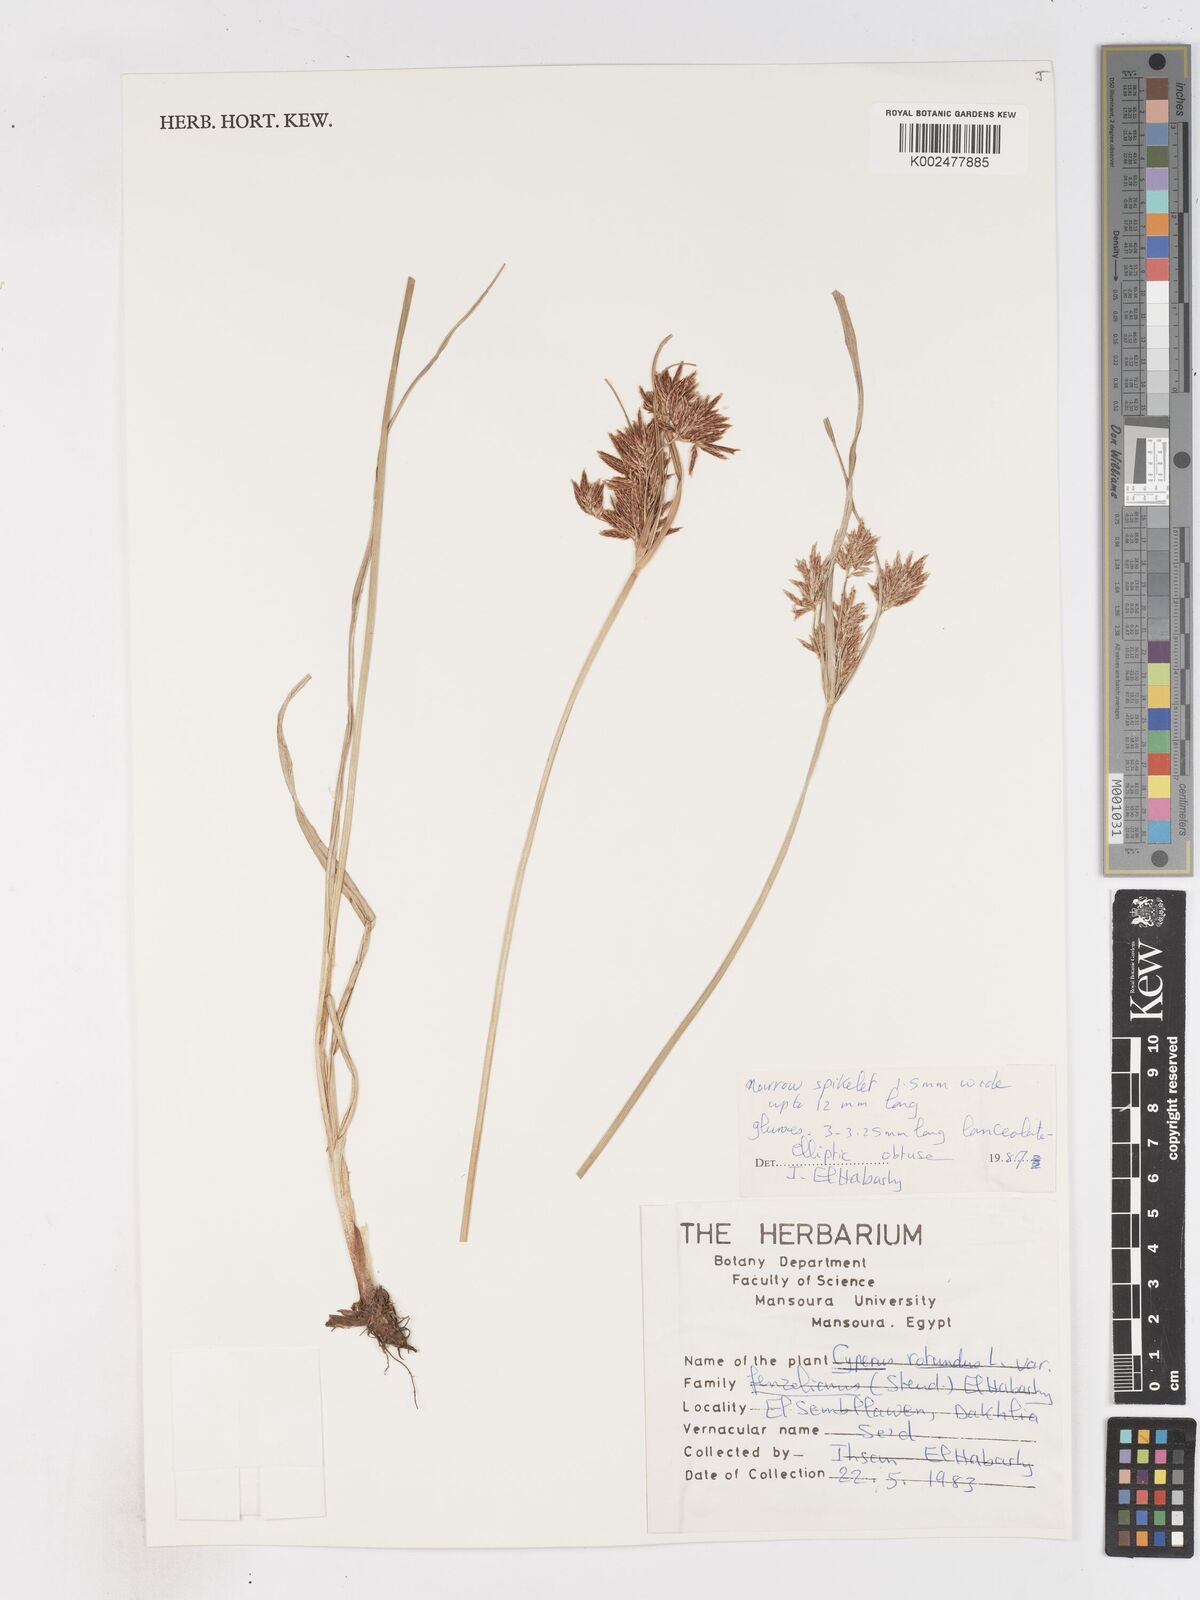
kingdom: Plantae
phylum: Tracheophyta
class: Liliopsida
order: Poales
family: Cyperaceae
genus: Cyperus
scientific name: Cyperus longus
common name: Galingale
